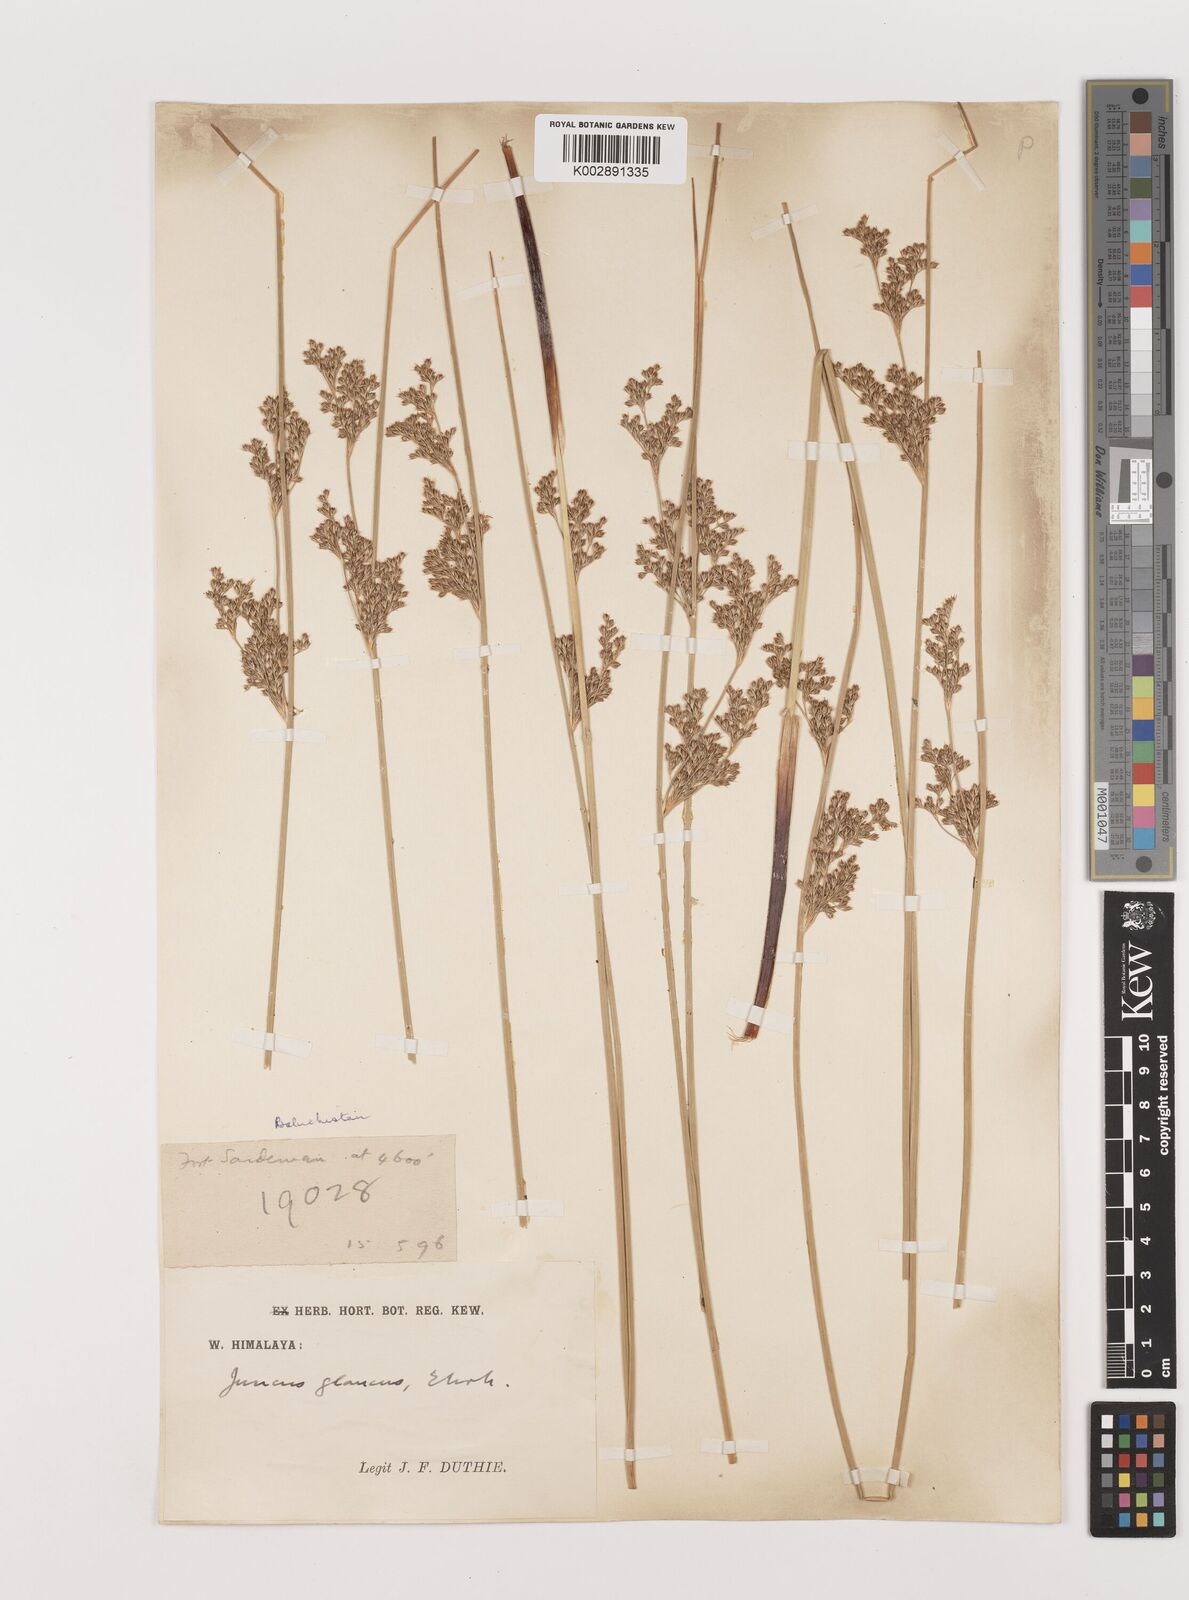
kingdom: Plantae
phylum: Tracheophyta
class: Liliopsida
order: Poales
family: Juncaceae
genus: Juncus
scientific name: Juncus inflexus
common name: Hard rush
